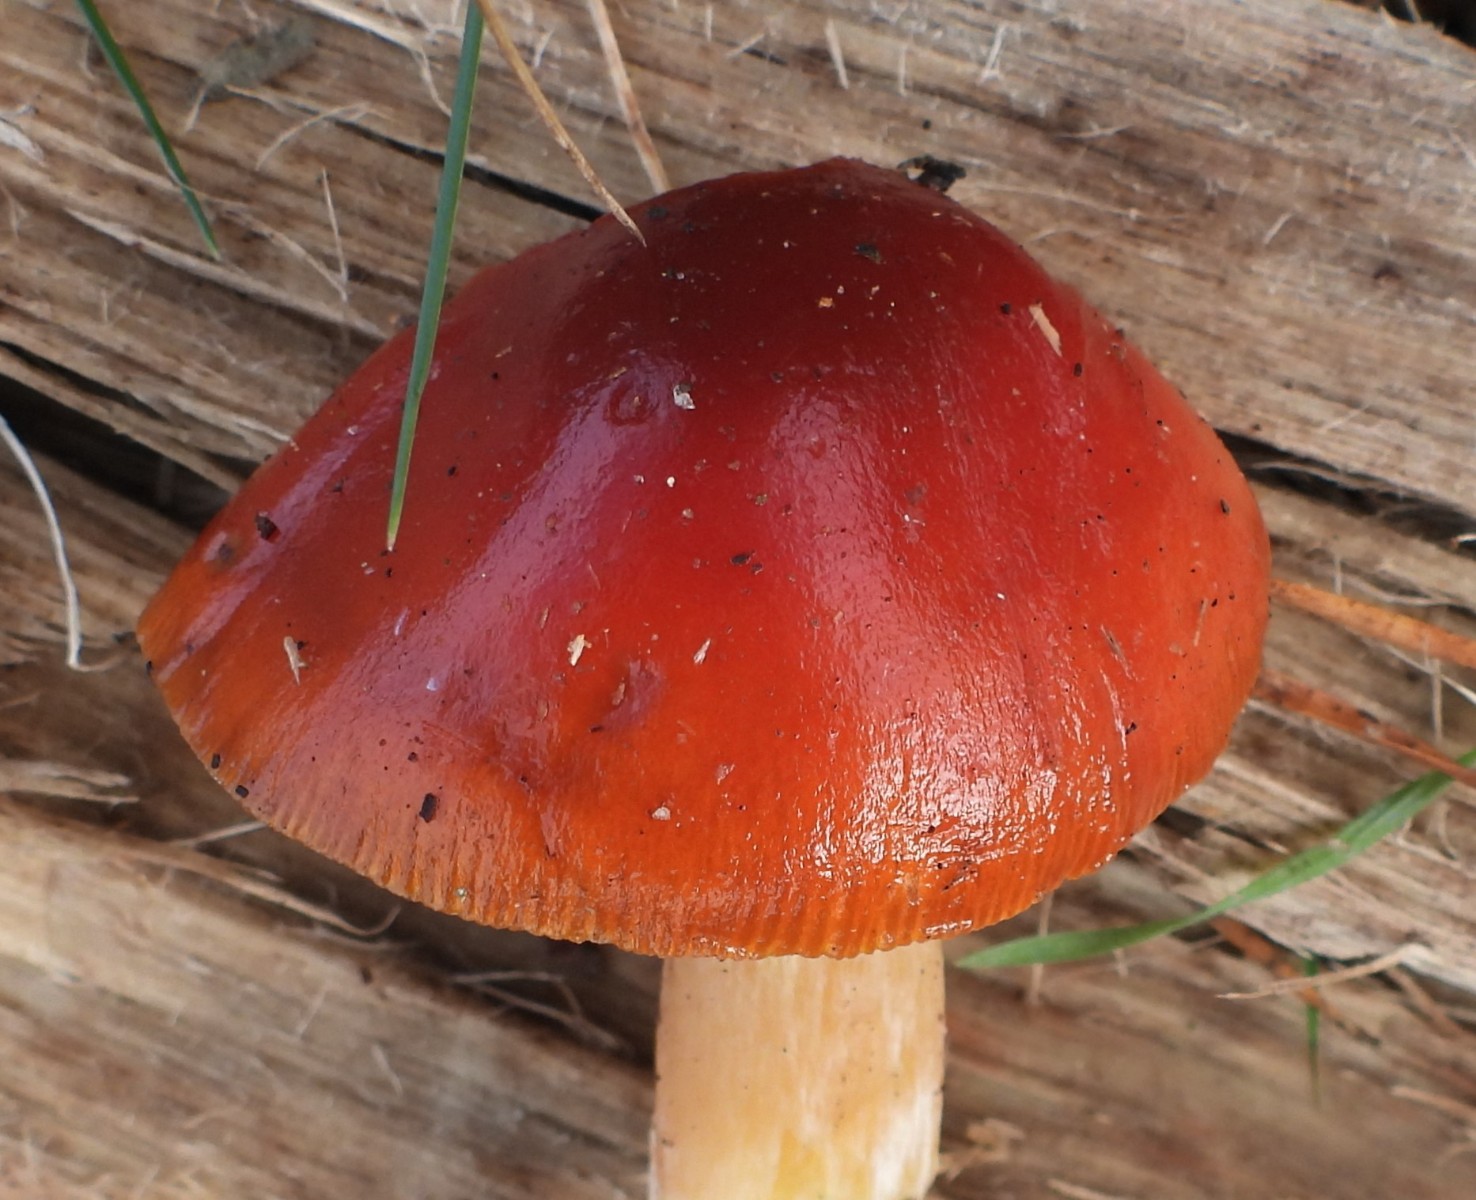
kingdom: Fungi
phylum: Basidiomycota
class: Agaricomycetes
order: Agaricales
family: Strophariaceae
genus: Leratiomyces
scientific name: Leratiomyces ceres
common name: orange bredblad
